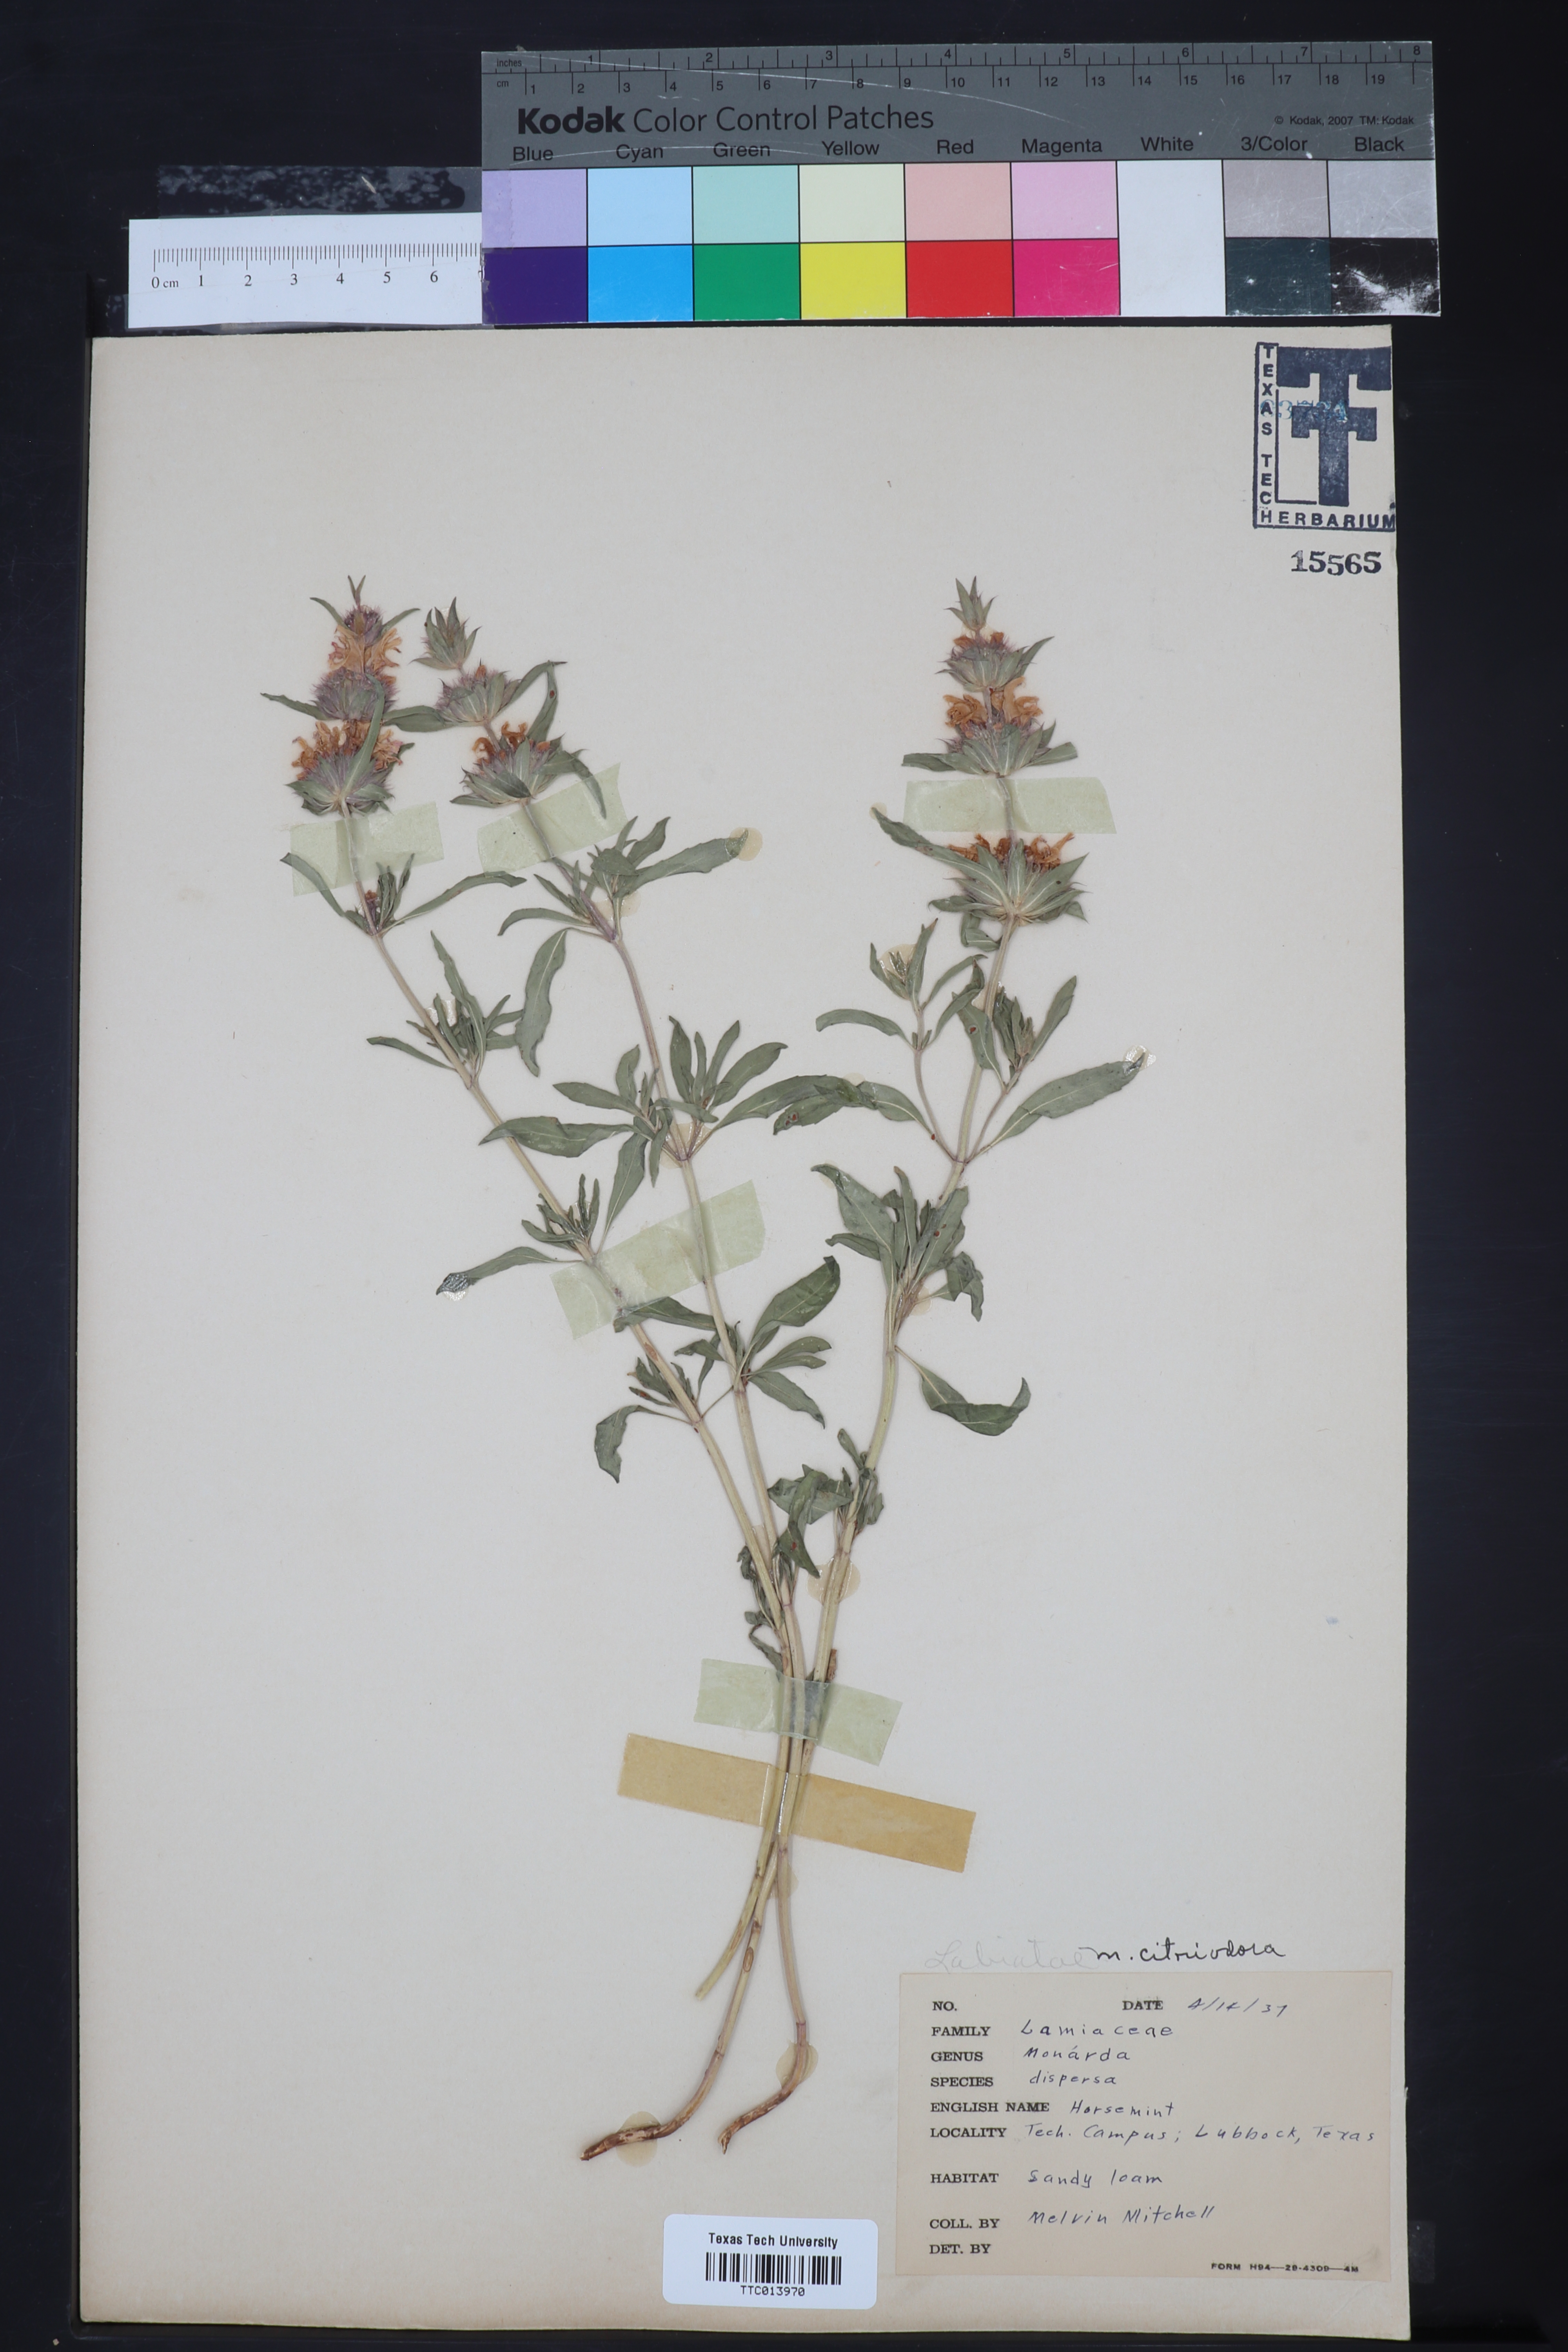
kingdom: Plantae
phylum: Tracheophyta
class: Magnoliopsida
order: Lamiales
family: Lamiaceae
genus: Monarda
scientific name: Monarda citriodora
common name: Lemon beebalm
